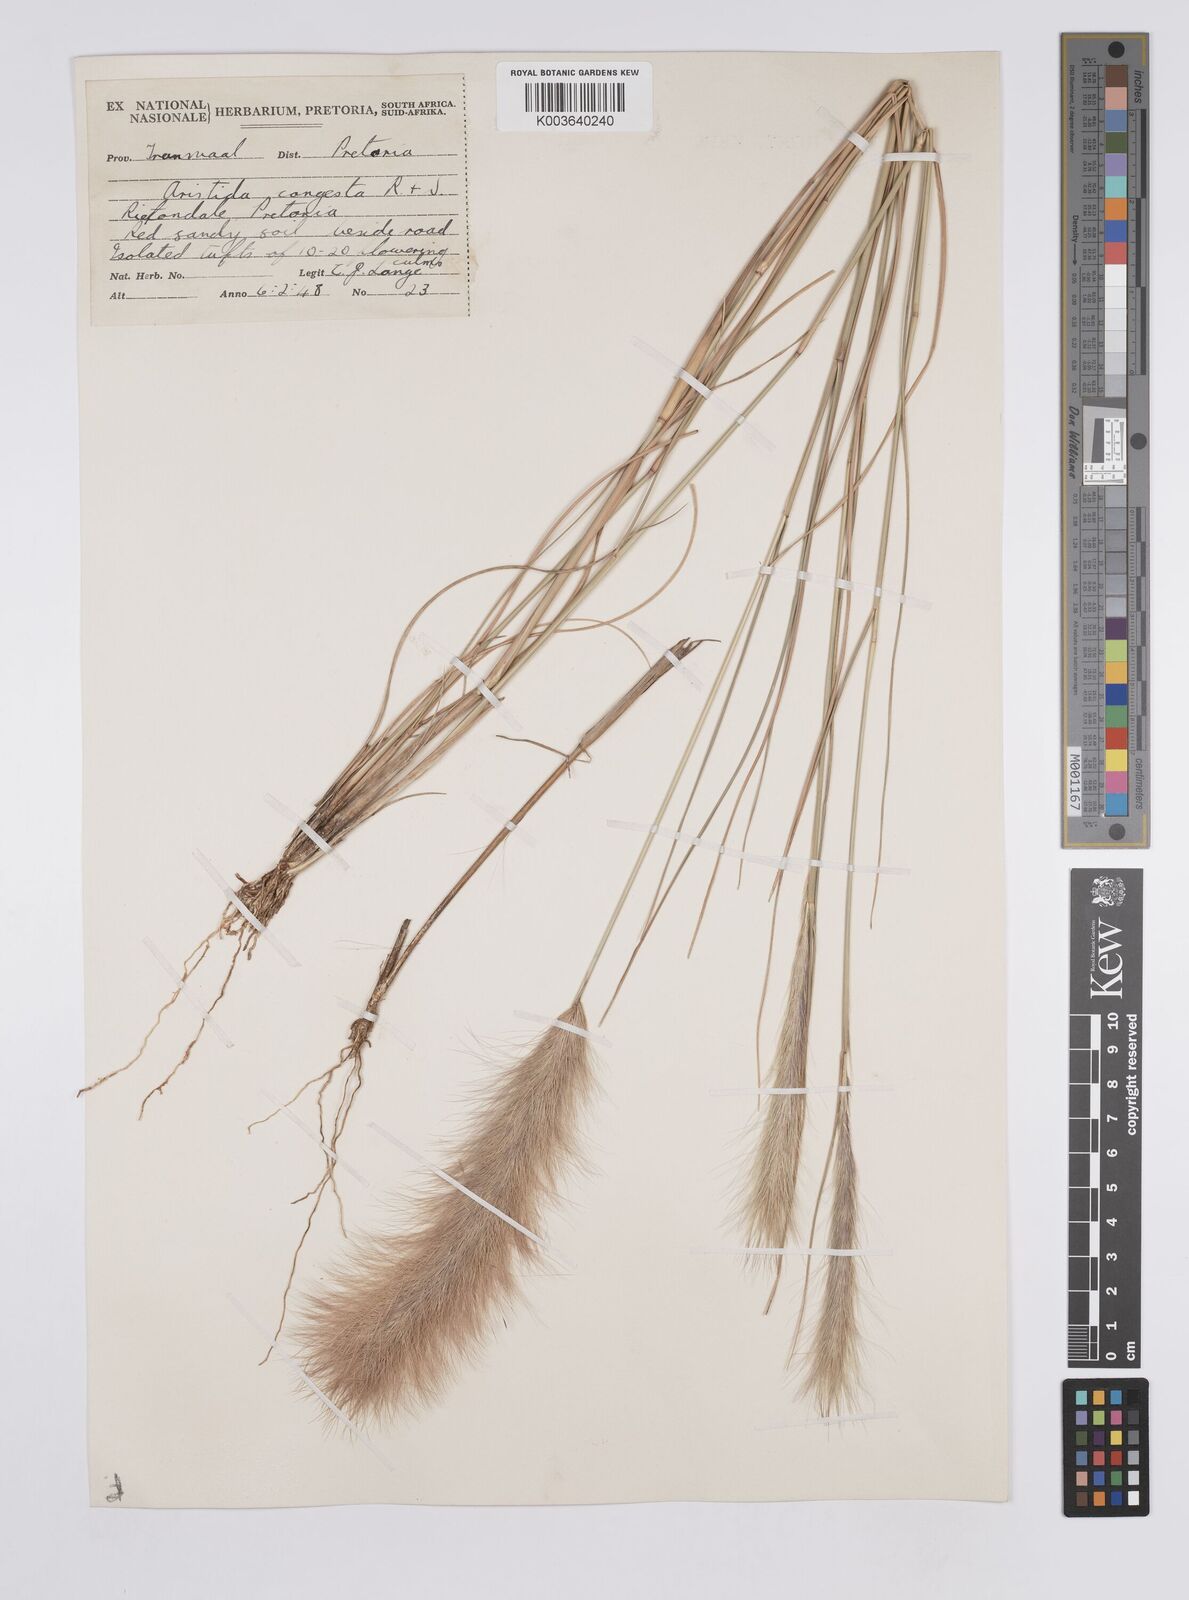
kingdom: Plantae
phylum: Tracheophyta
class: Liliopsida
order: Poales
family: Poaceae
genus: Aristida
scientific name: Aristida congesta
